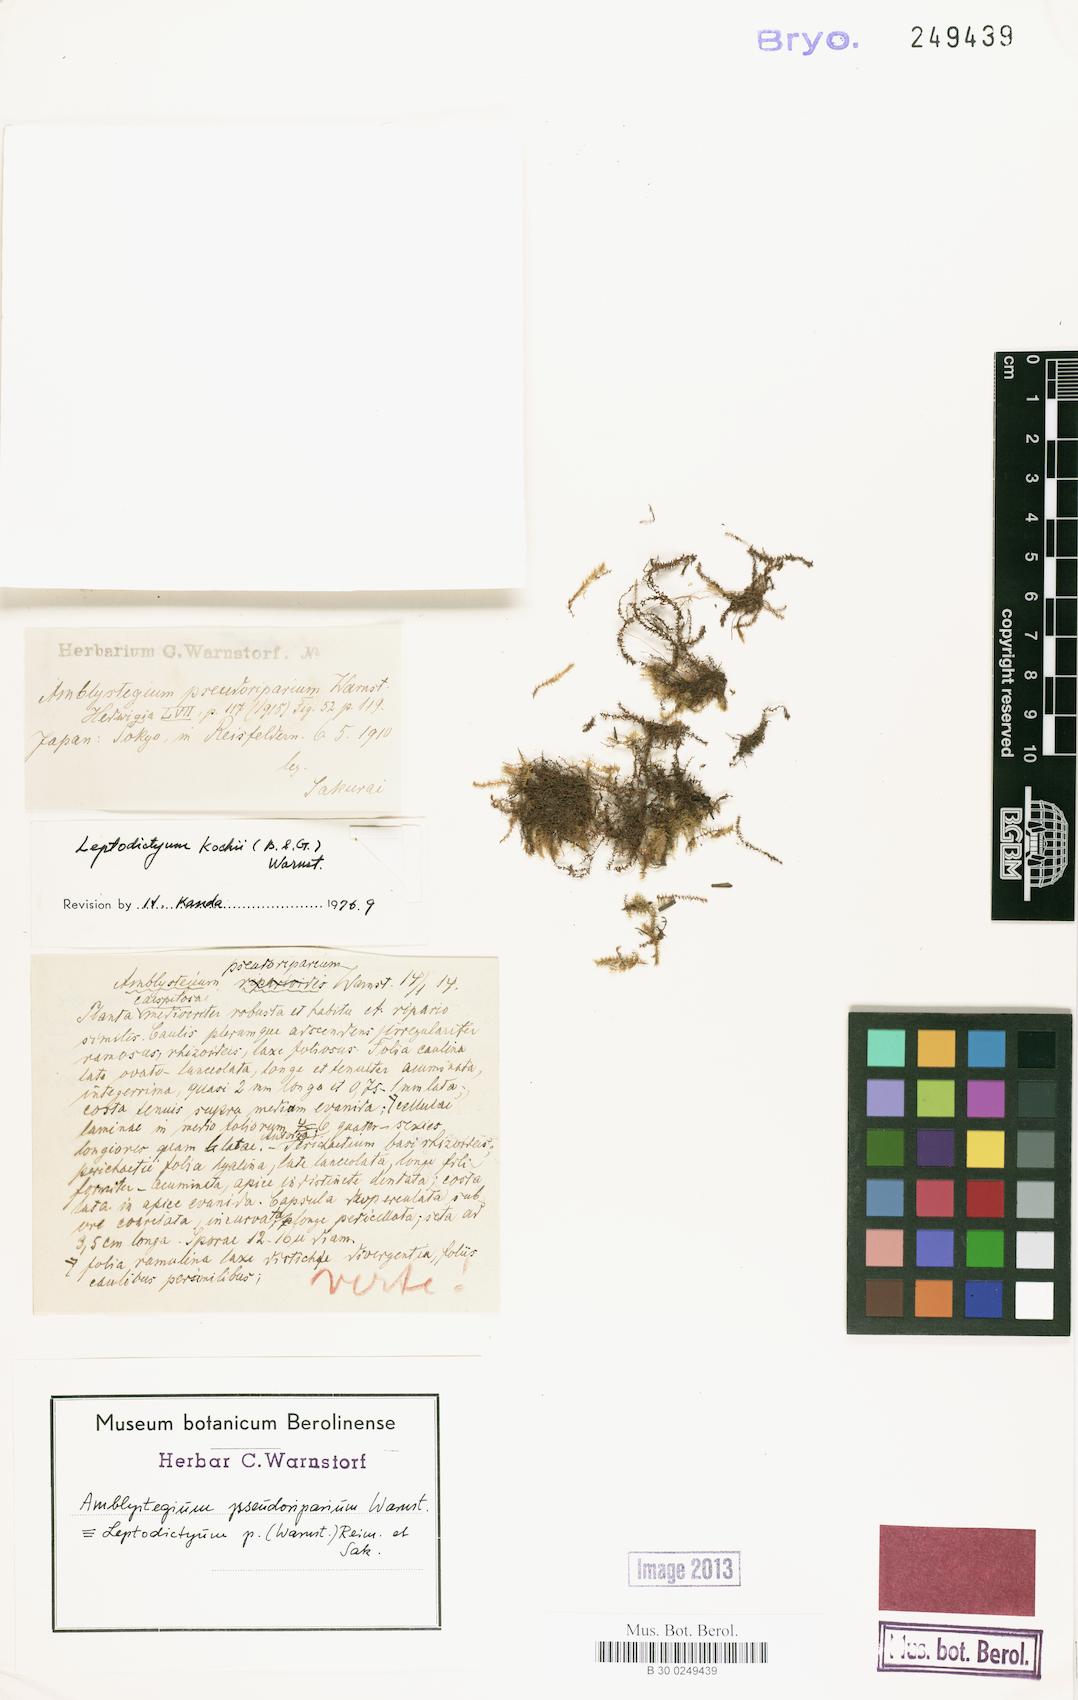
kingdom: Plantae
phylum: Bryophyta
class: Bryopsida
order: Hypnales
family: Amblystegiaceae
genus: Hygroamblystegium
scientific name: Hygroamblystegium humile
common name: Constricted feather-moss
